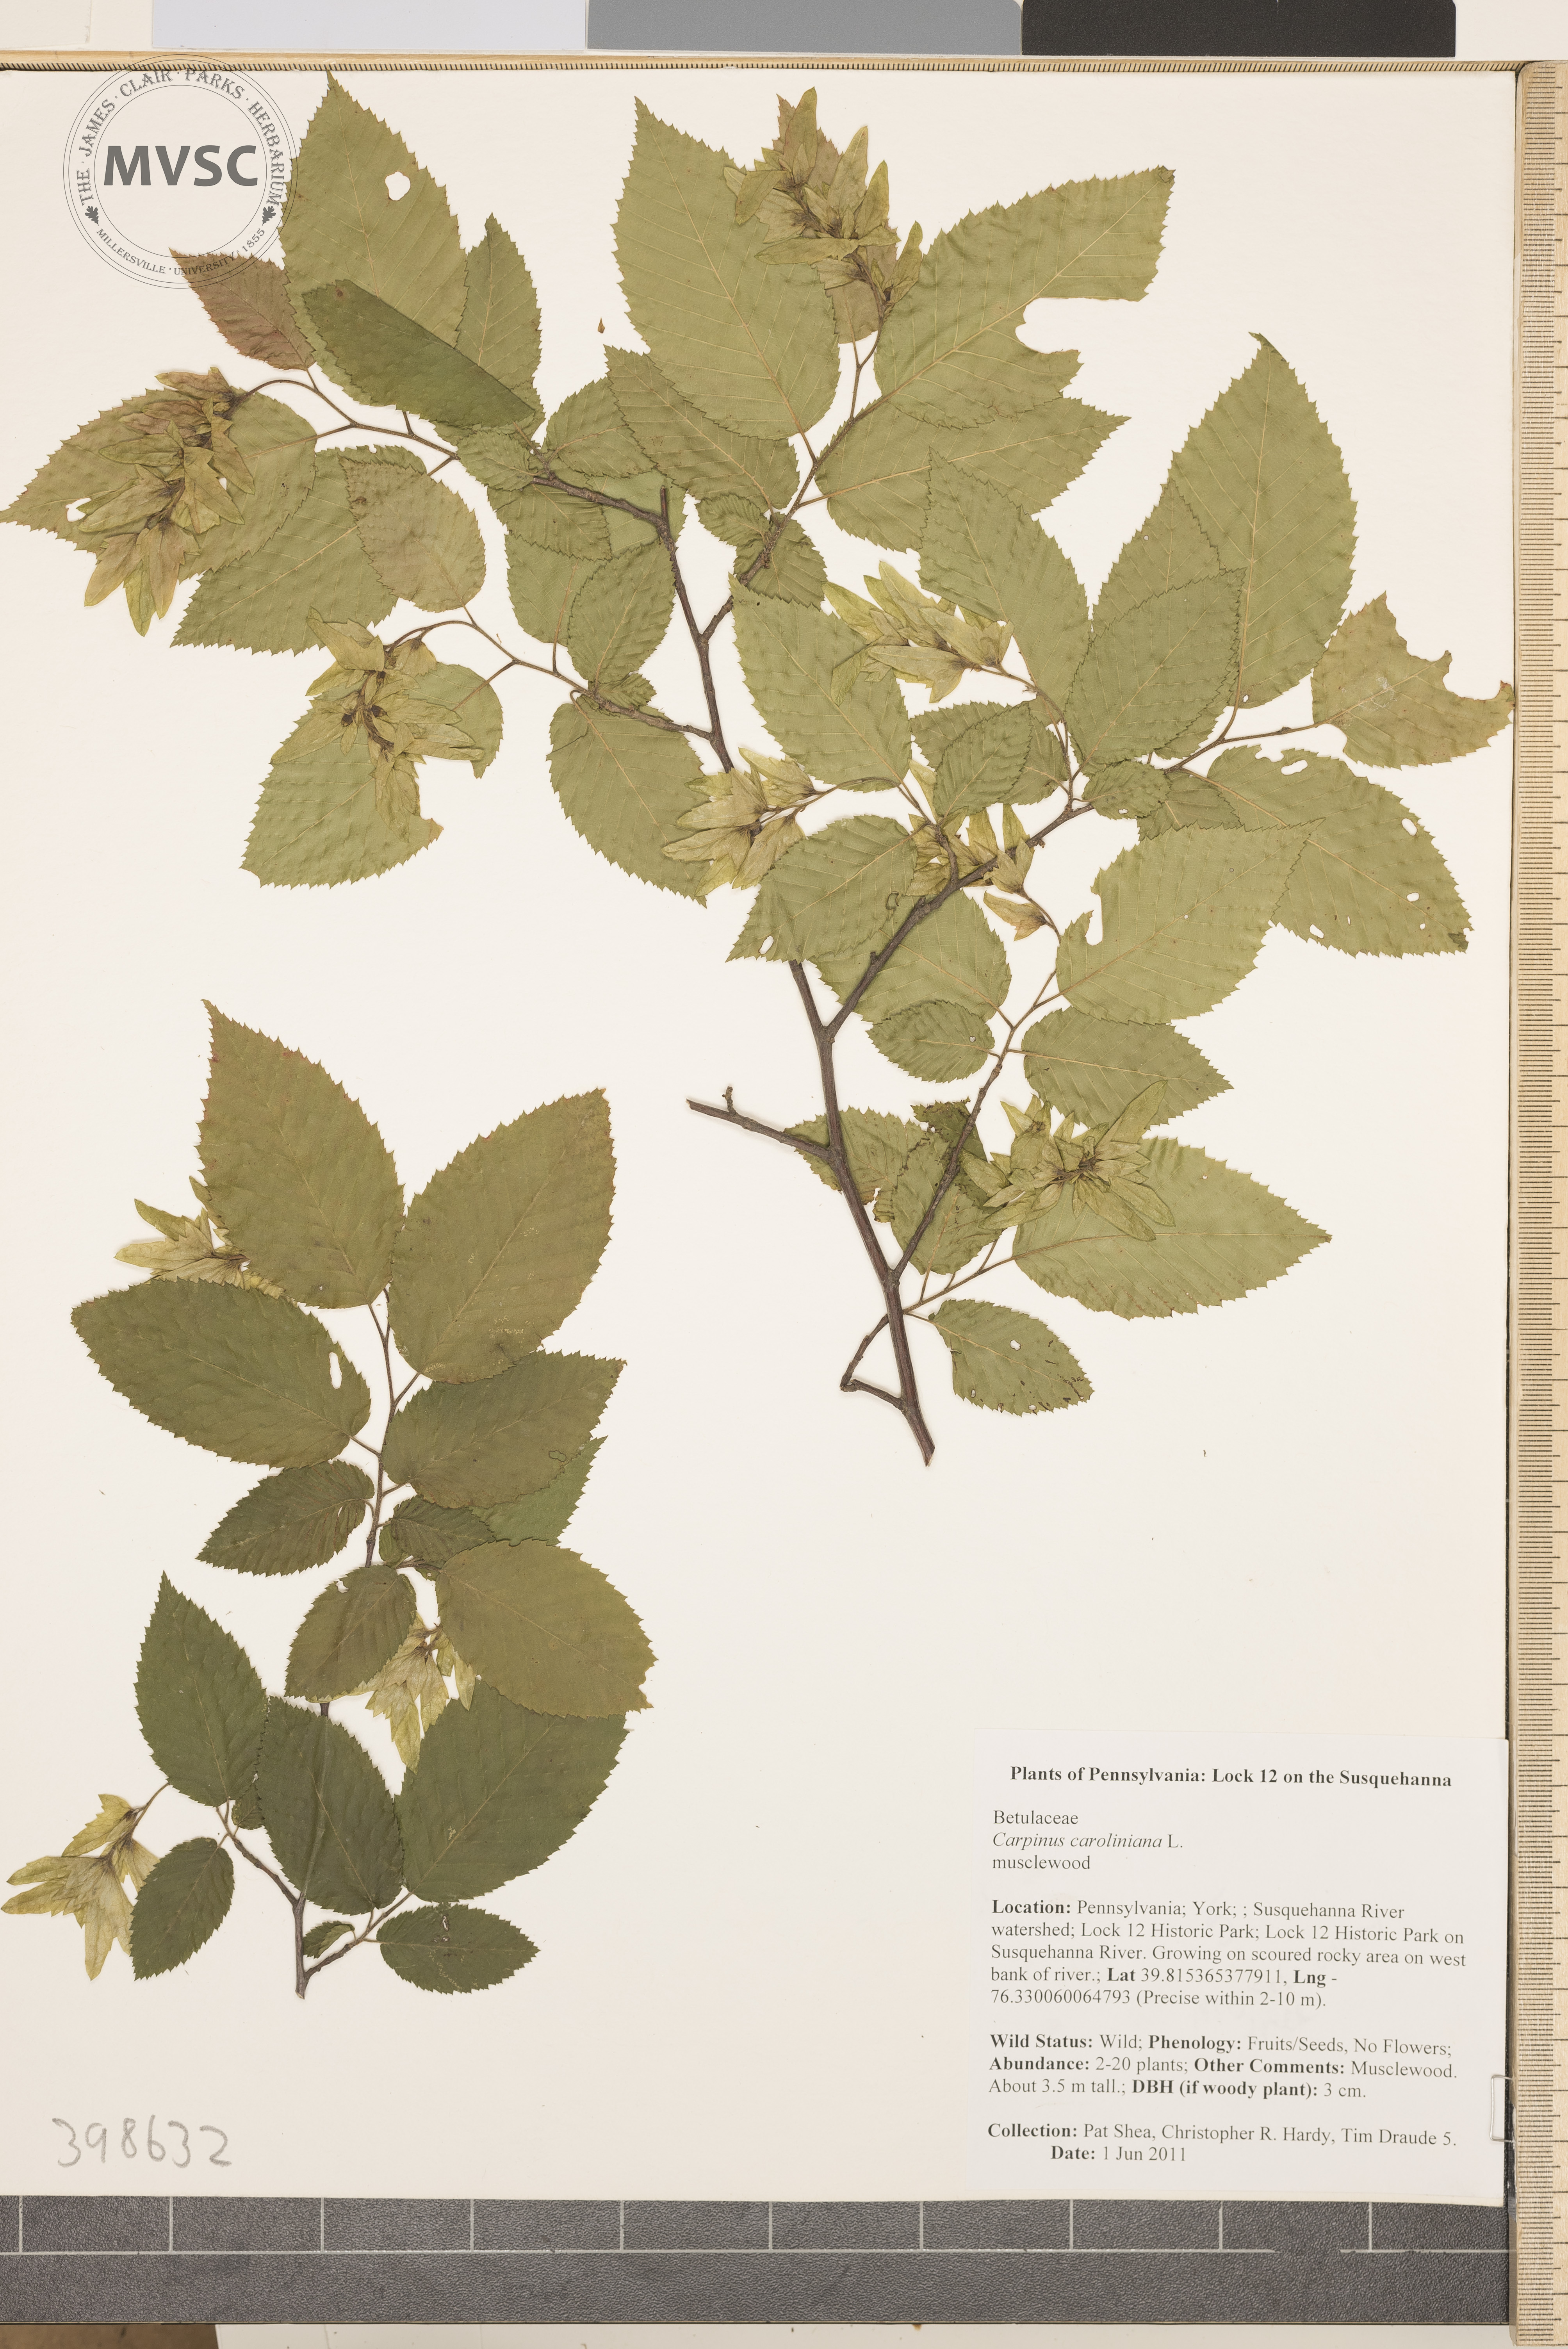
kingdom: Plantae
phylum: Tracheophyta
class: Magnoliopsida
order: Fagales
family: Betulaceae
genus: Carpinus
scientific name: Carpinus caroliniana
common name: Hornbeam
